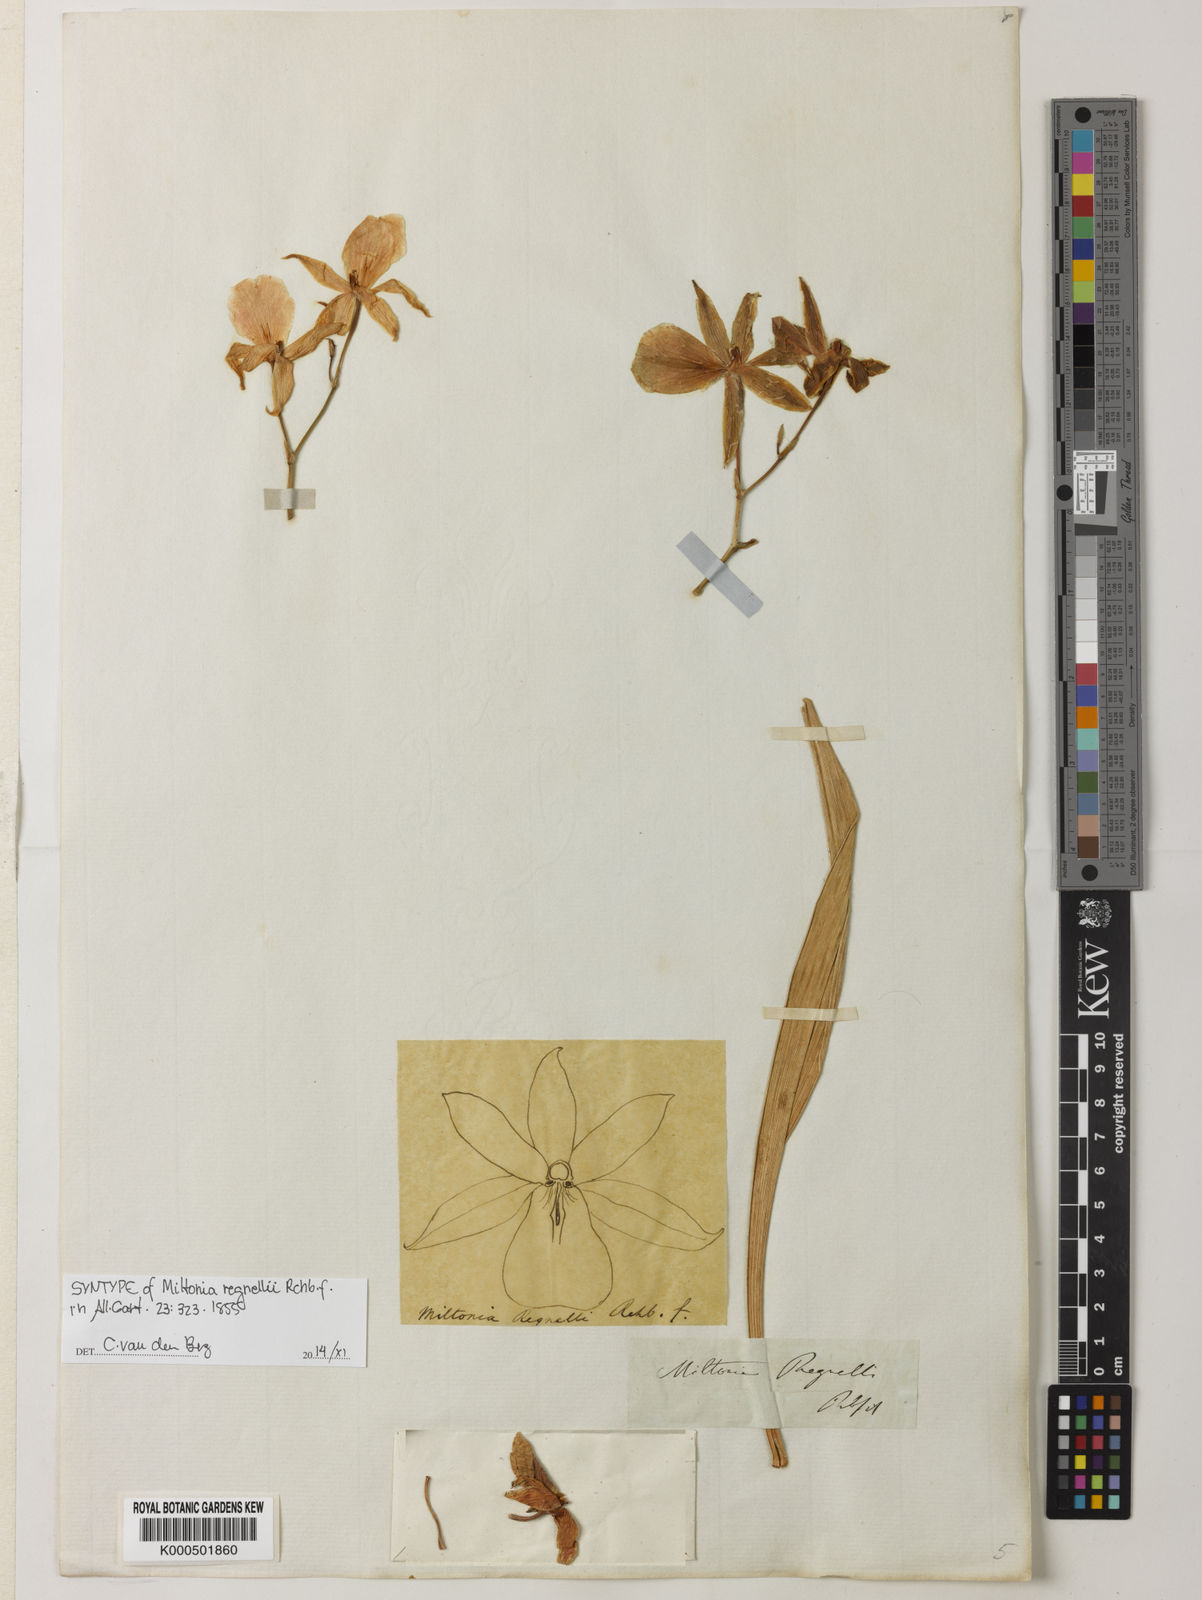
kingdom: Plantae
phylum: Tracheophyta
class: Liliopsida
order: Asparagales
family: Orchidaceae
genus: Miltonia
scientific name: Miltonia regnellii
